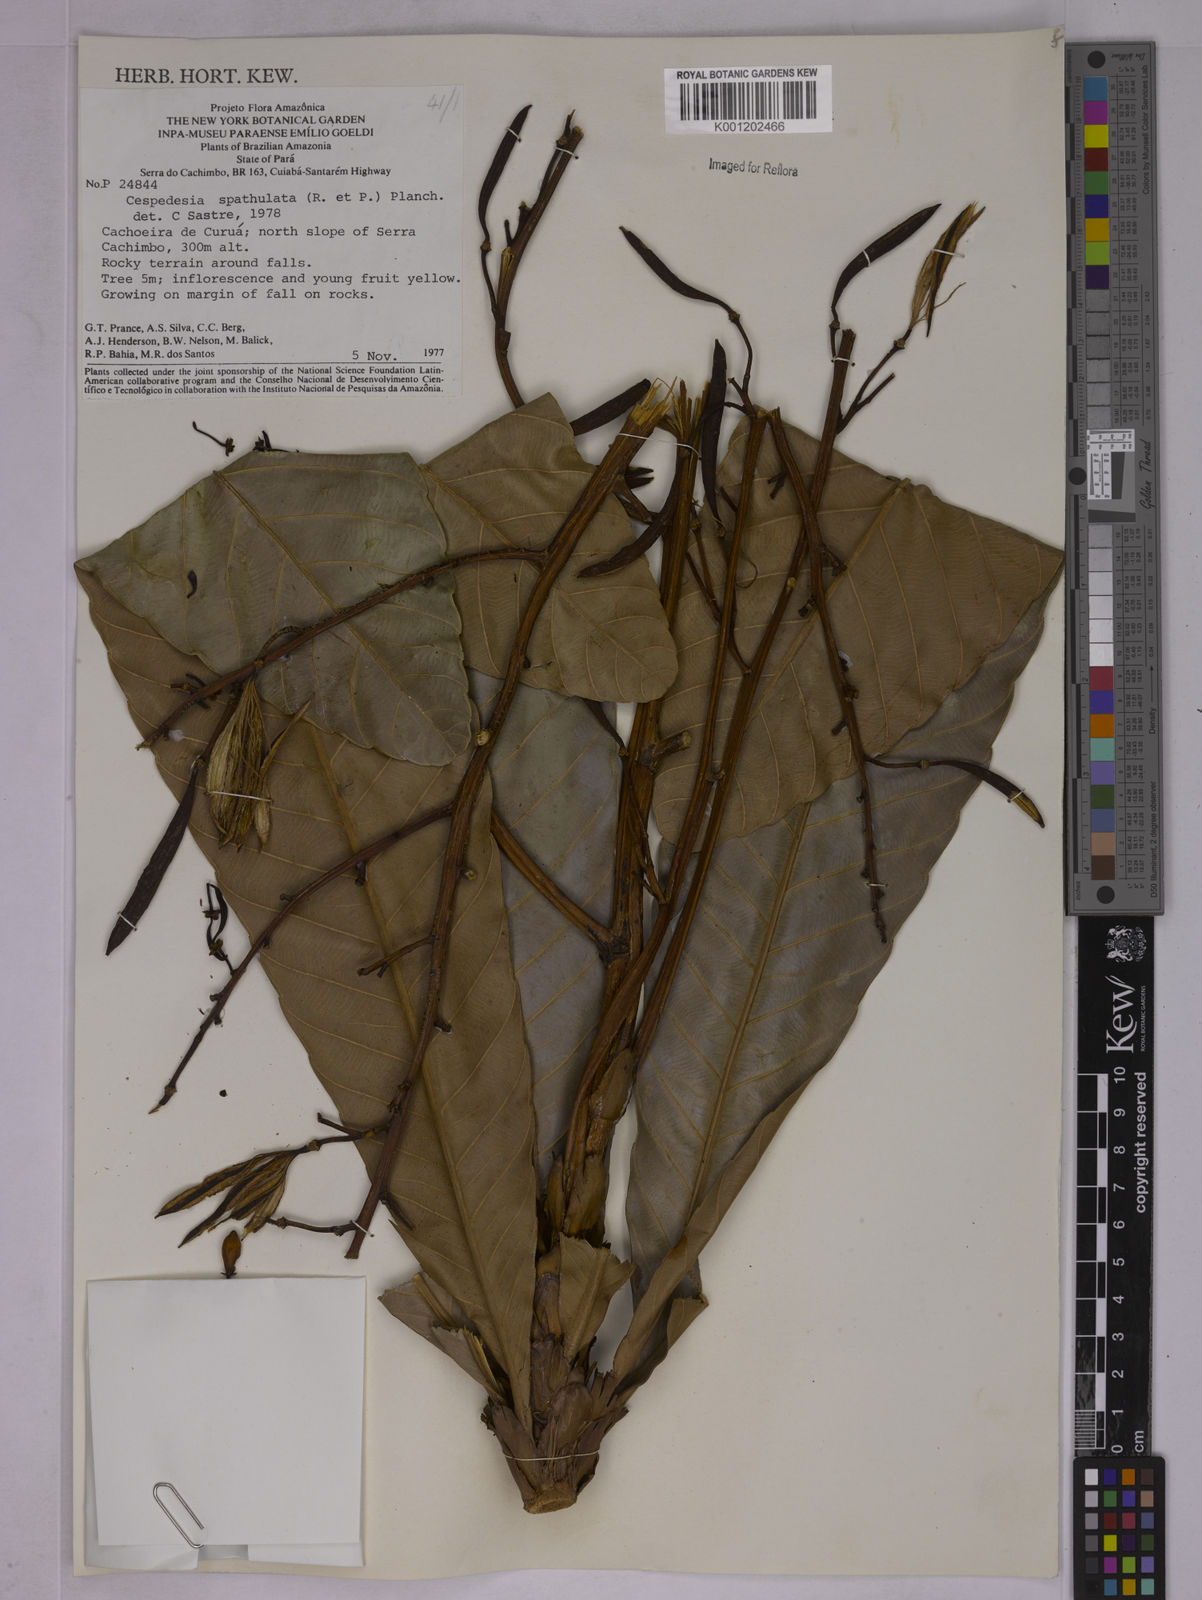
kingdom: Plantae
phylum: Tracheophyta
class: Magnoliopsida
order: Malpighiales
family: Ochnaceae
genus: Cespedesia
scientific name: Cespedesia spathulata
